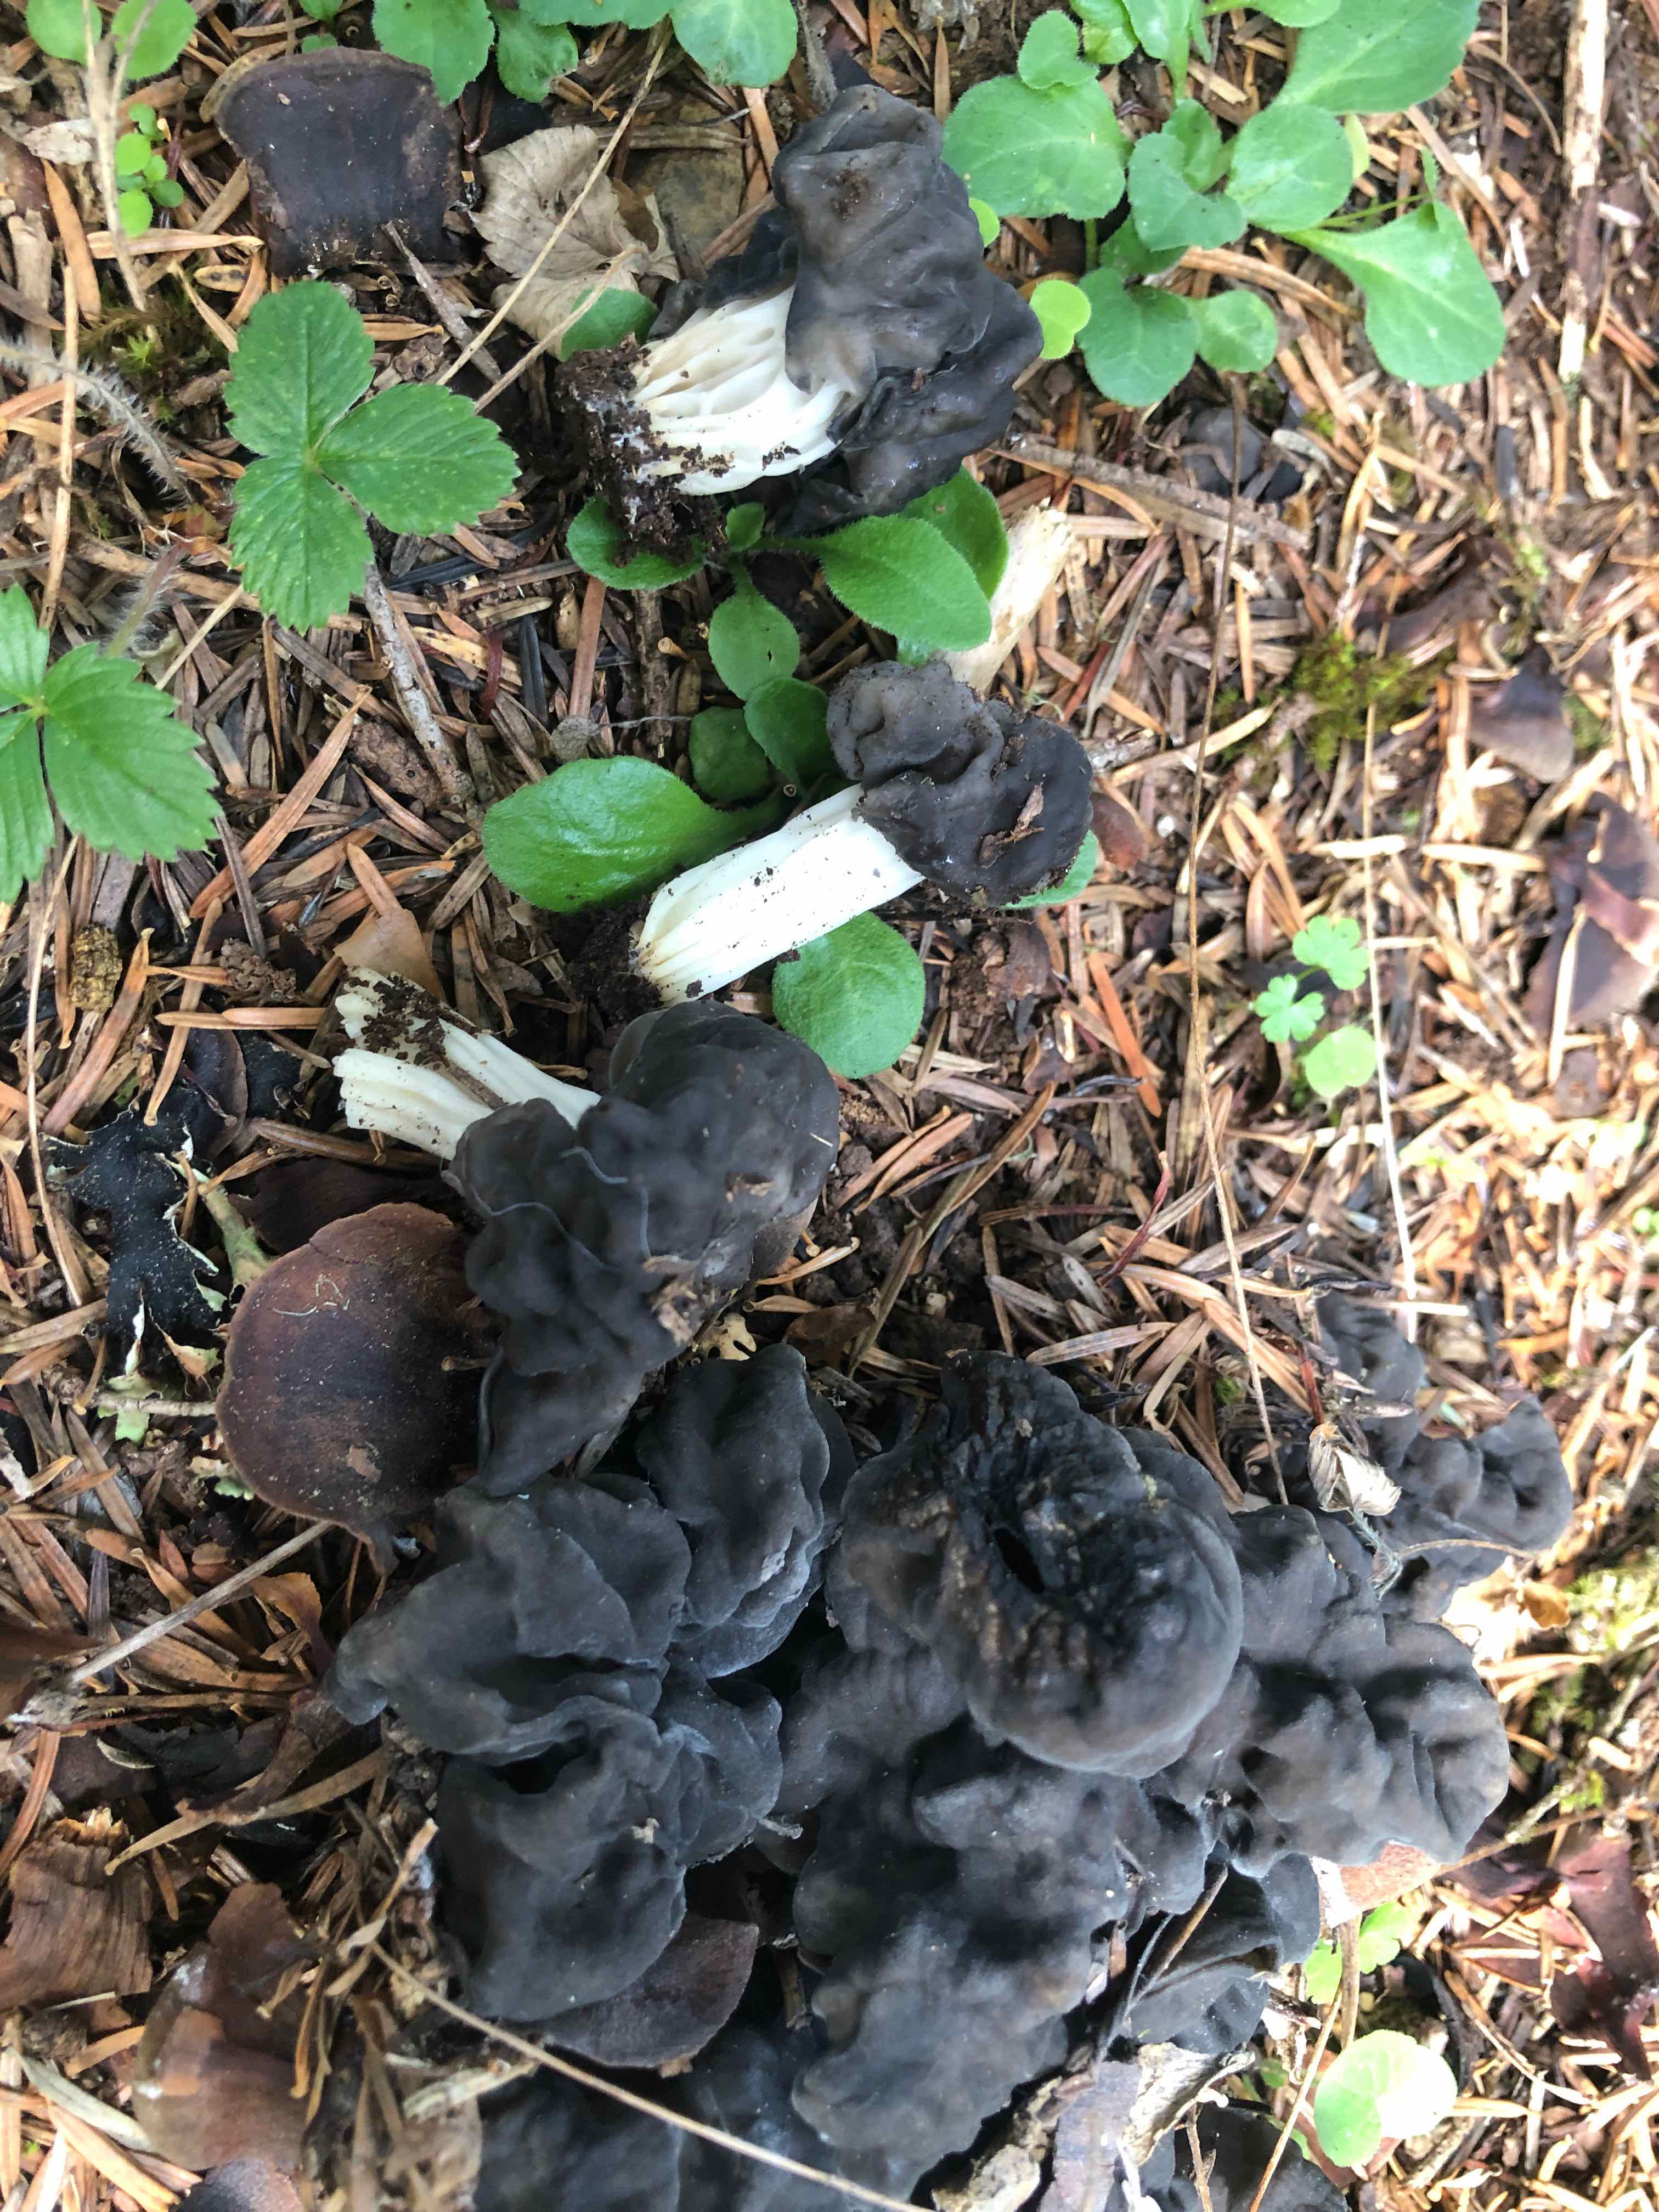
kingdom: Fungi
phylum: Ascomycota
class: Pezizomycetes
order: Pezizales
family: Helvellaceae
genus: Helvella
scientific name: Helvella lacunosa
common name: grubet foldhat
